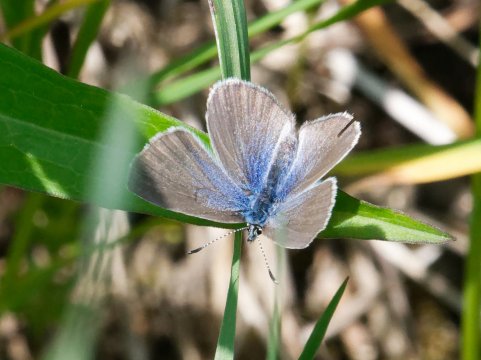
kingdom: Animalia
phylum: Arthropoda
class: Insecta
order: Lepidoptera
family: Lycaenidae
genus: Glaucopsyche
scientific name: Glaucopsyche lygdamus
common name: Silvery Blue
